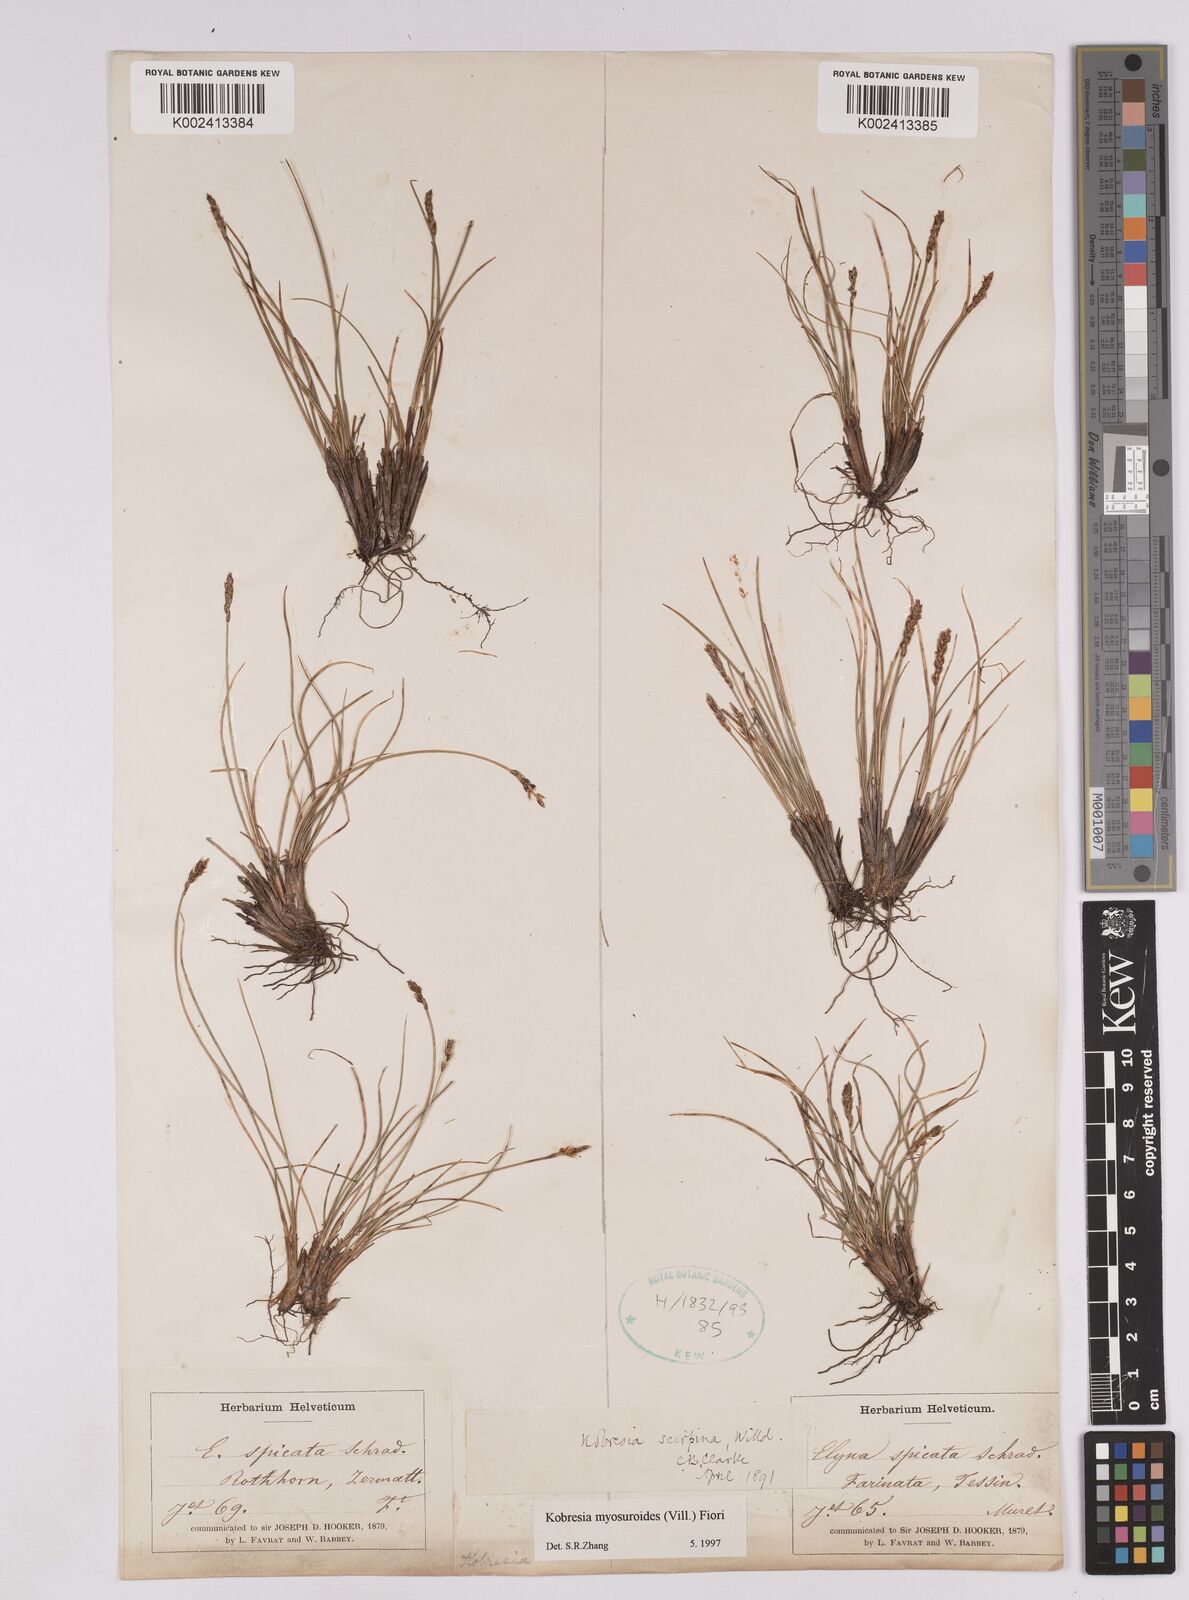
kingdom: Plantae
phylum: Tracheophyta
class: Liliopsida
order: Poales
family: Cyperaceae
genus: Carex
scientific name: Carex myosuroides
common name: Bellard's bog sedge
